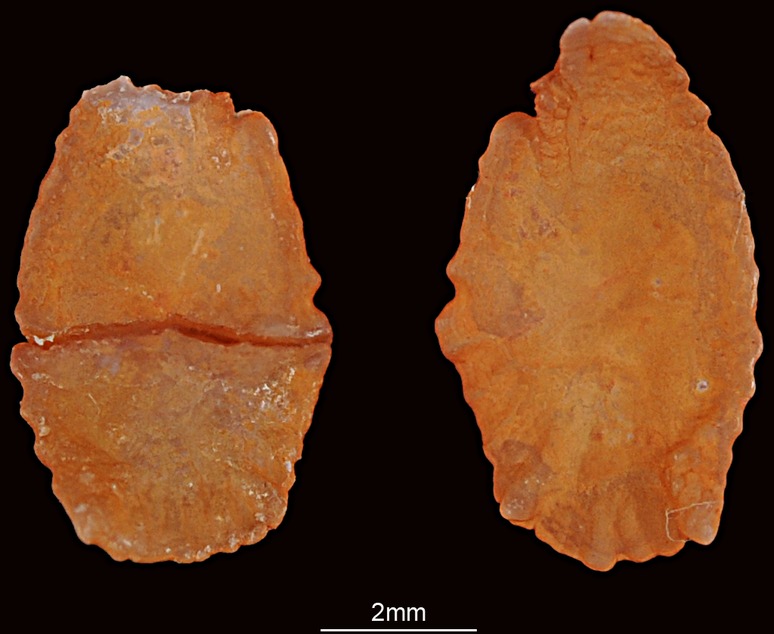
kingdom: Animalia
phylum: Chordata
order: Perciformes
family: Lethrinidae
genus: Lethrinus
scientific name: Lethrinus microdon
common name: Smalltooth emperor
